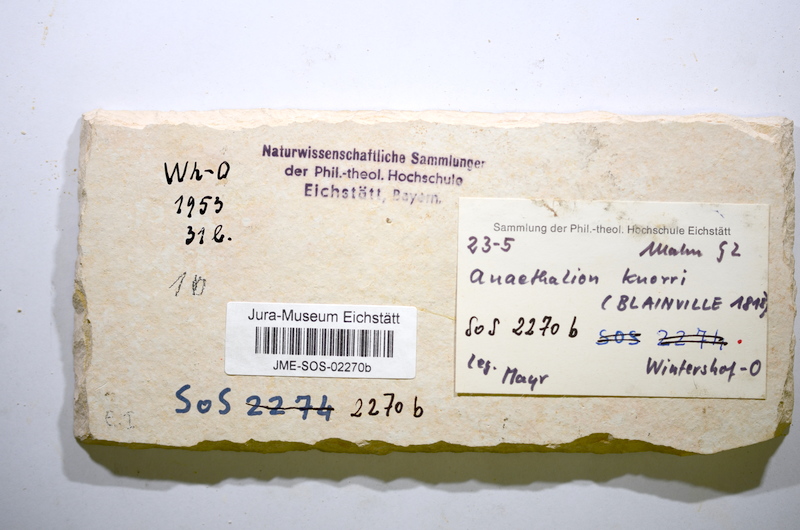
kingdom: Animalia
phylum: Chordata
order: Elopiformes
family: Anaethalionidae
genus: Anaethalion
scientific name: Anaethalion knorri
